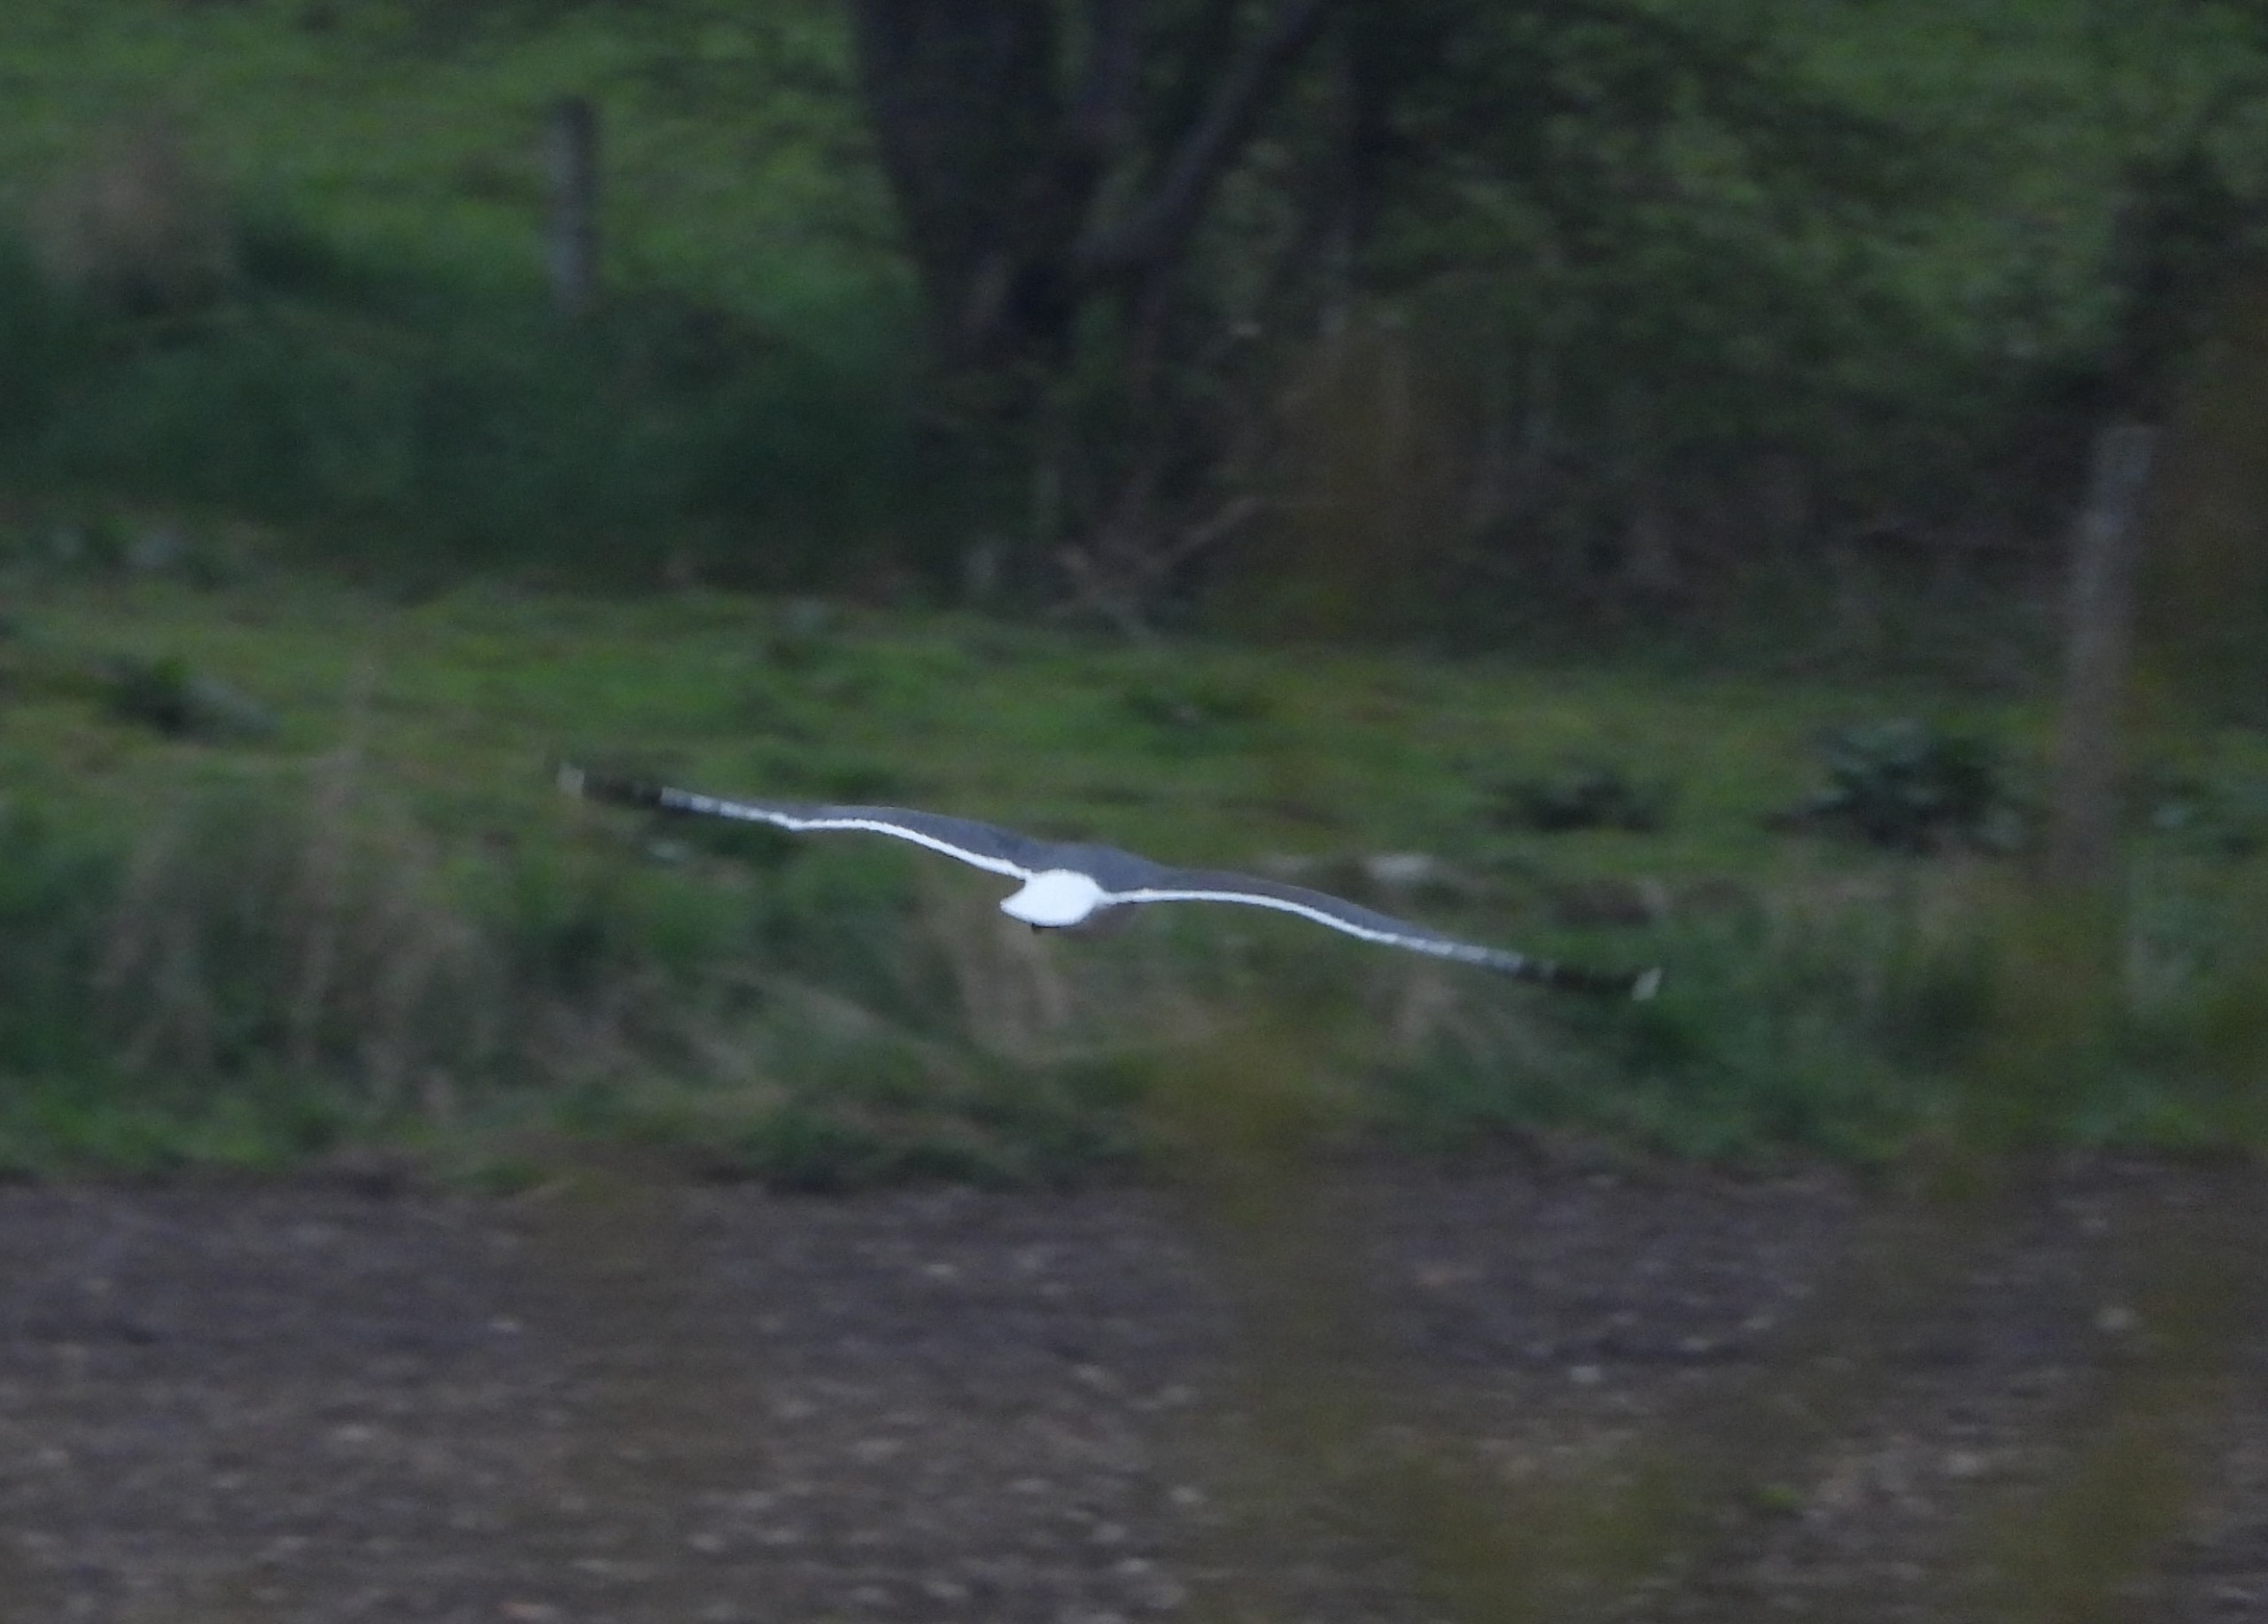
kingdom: Animalia
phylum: Chordata
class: Aves
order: Charadriiformes
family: Laridae
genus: Larus
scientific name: Larus fuscus
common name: Sildemåge
